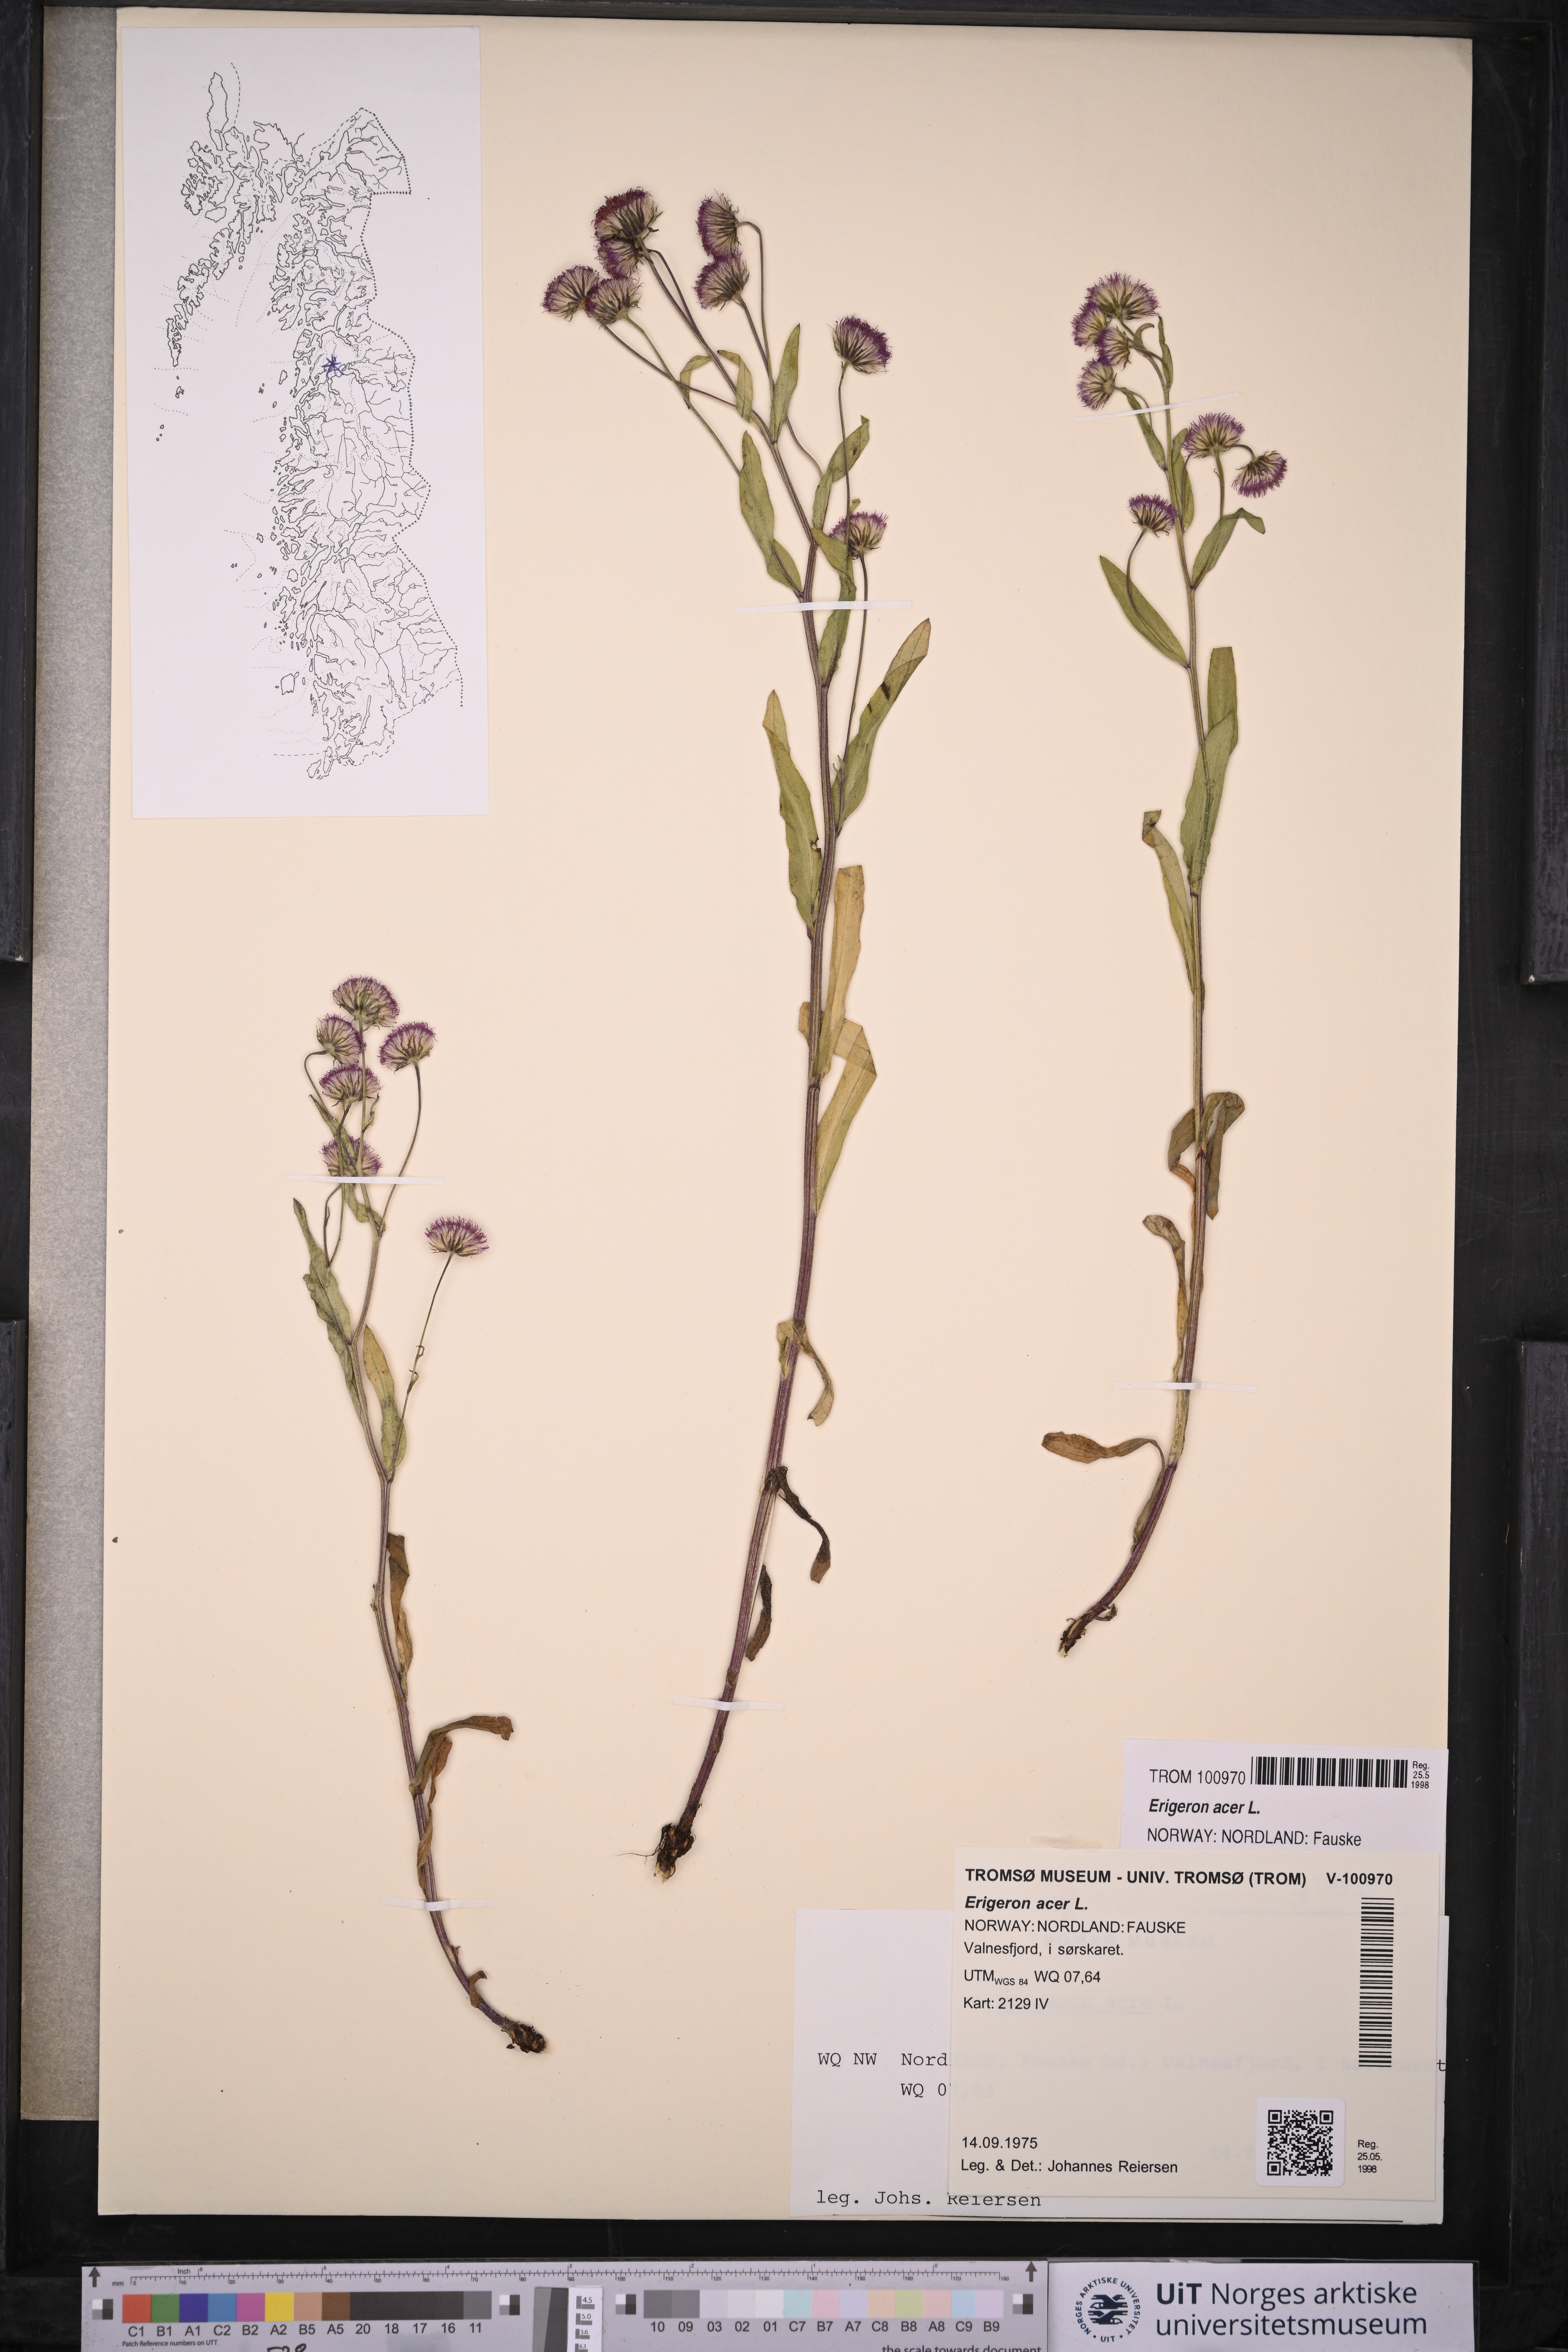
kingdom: Plantae
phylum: Tracheophyta
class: Magnoliopsida
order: Asterales
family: Asteraceae
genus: Erigeron
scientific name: Erigeron acris
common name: Blue fleabane
